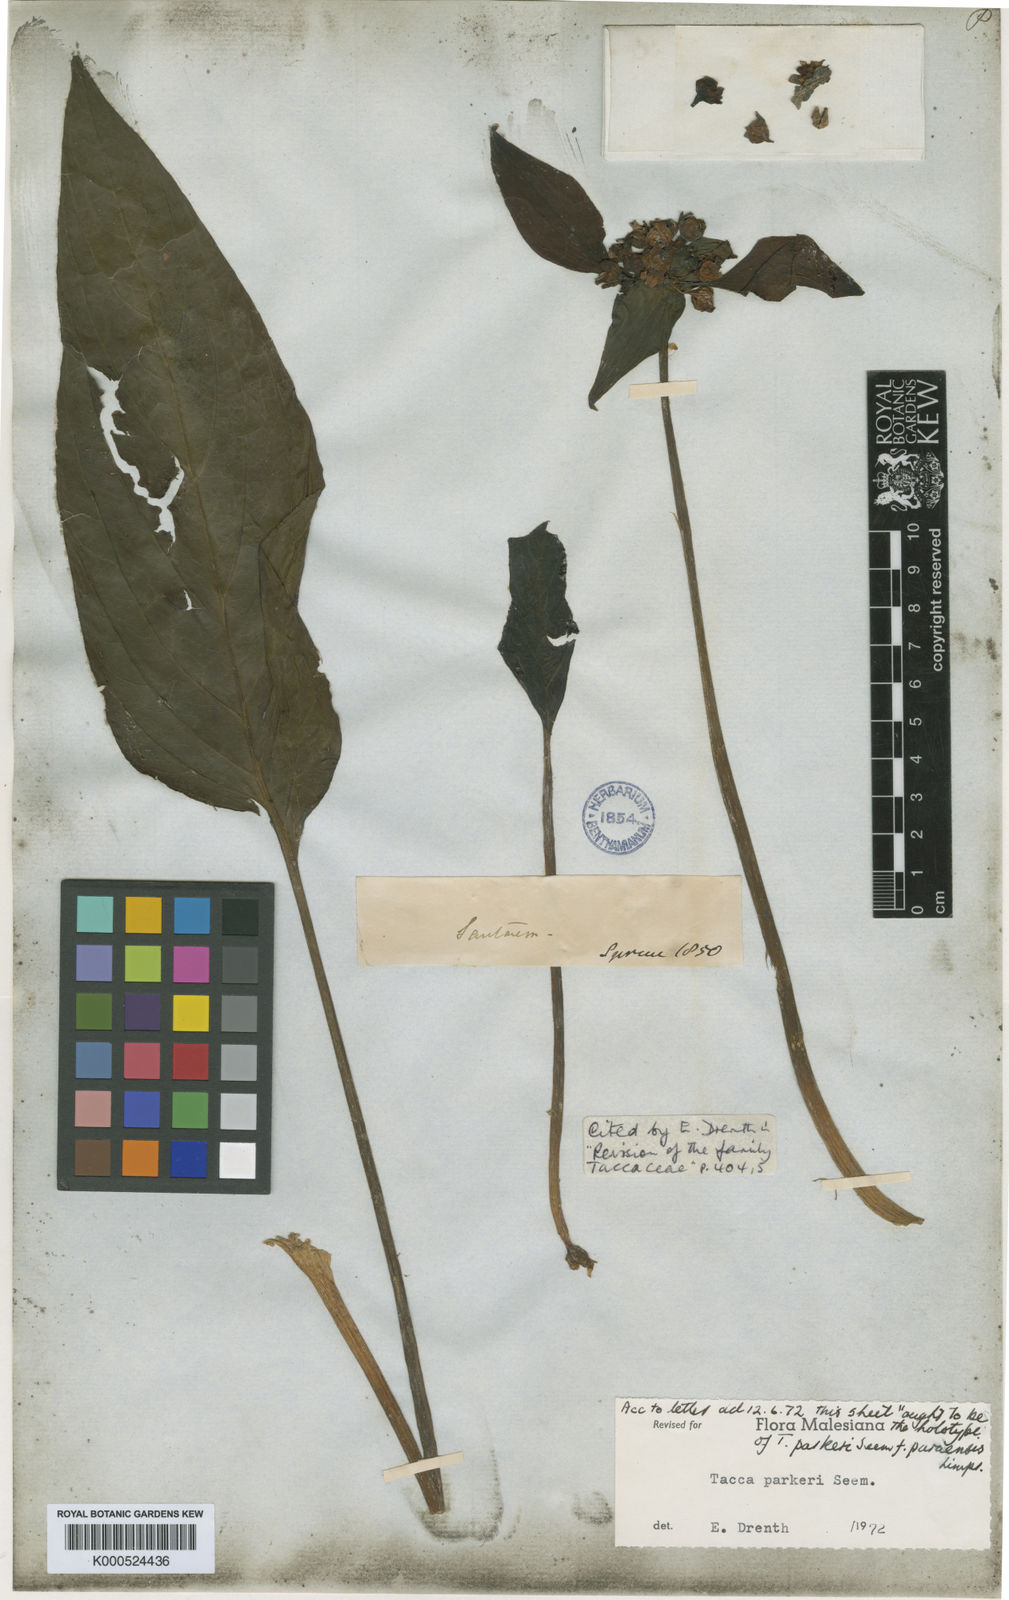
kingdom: Plantae
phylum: Tracheophyta
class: Liliopsida
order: Dioscoreales
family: Dioscoreaceae
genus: Tacca
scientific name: Tacca parkeri
